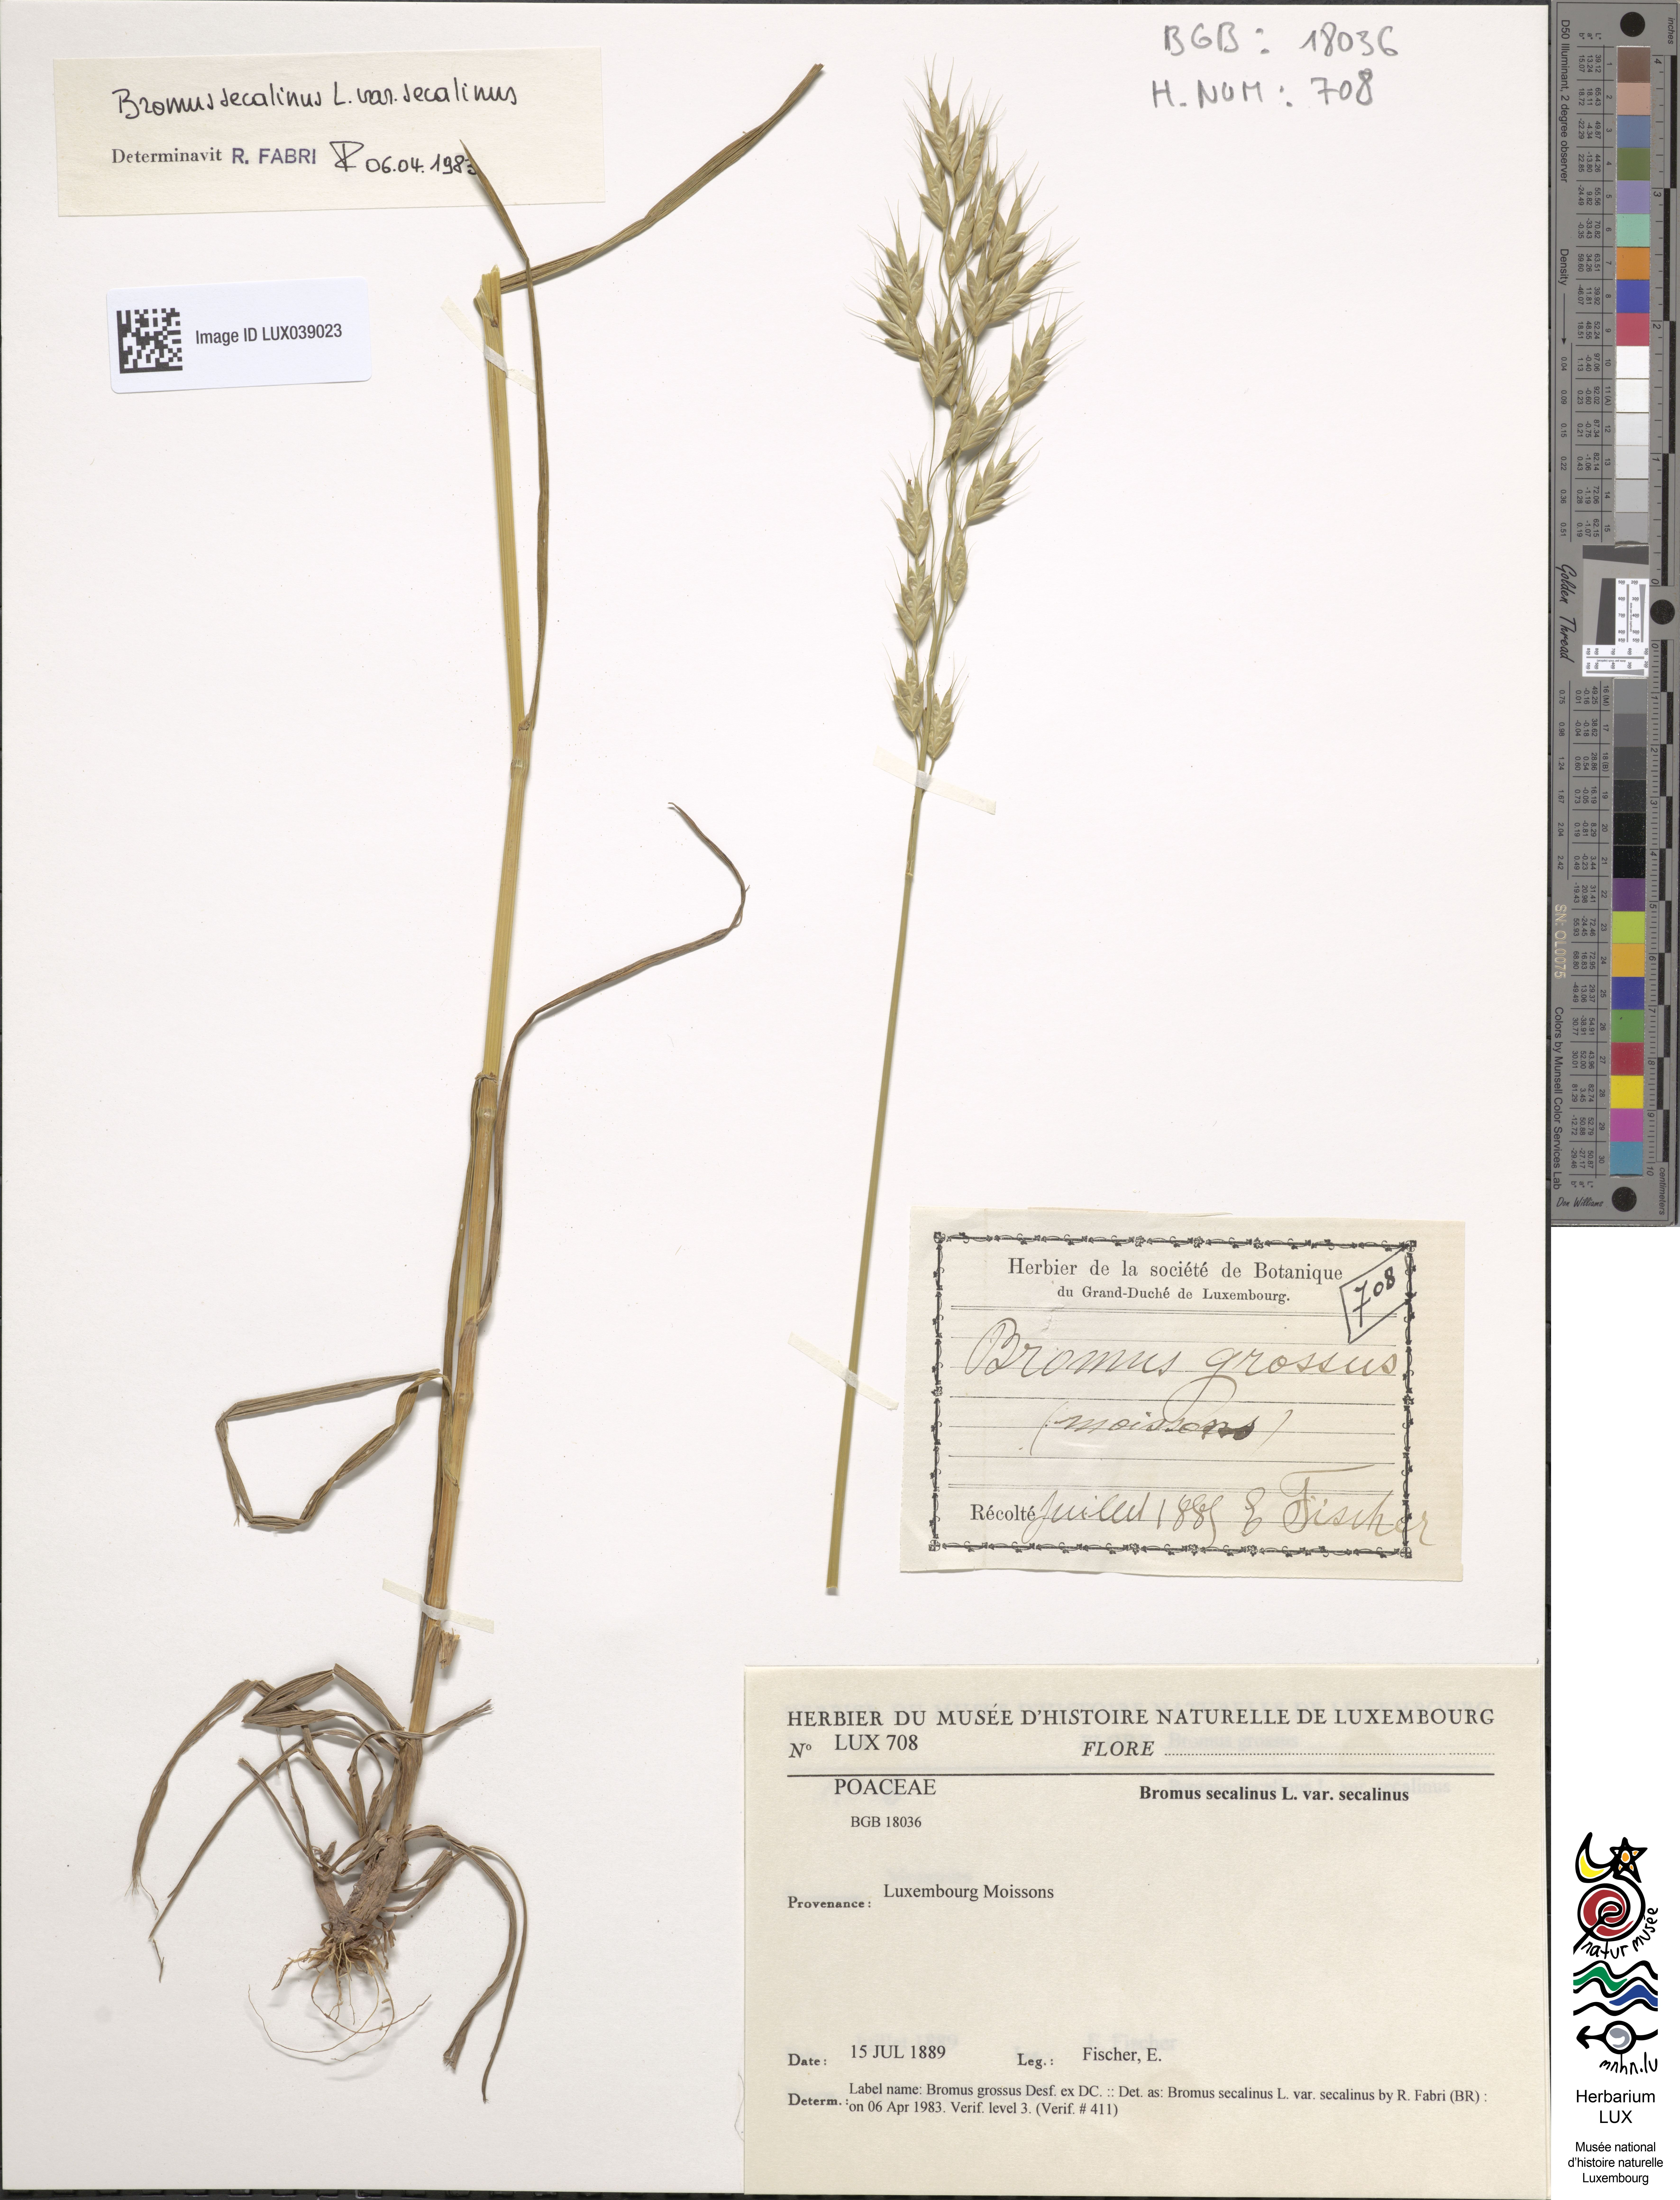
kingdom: Plantae
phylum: Tracheophyta
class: Liliopsida
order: Poales
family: Poaceae
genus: Bromus
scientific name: Bromus secalinus
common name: Rye brome
